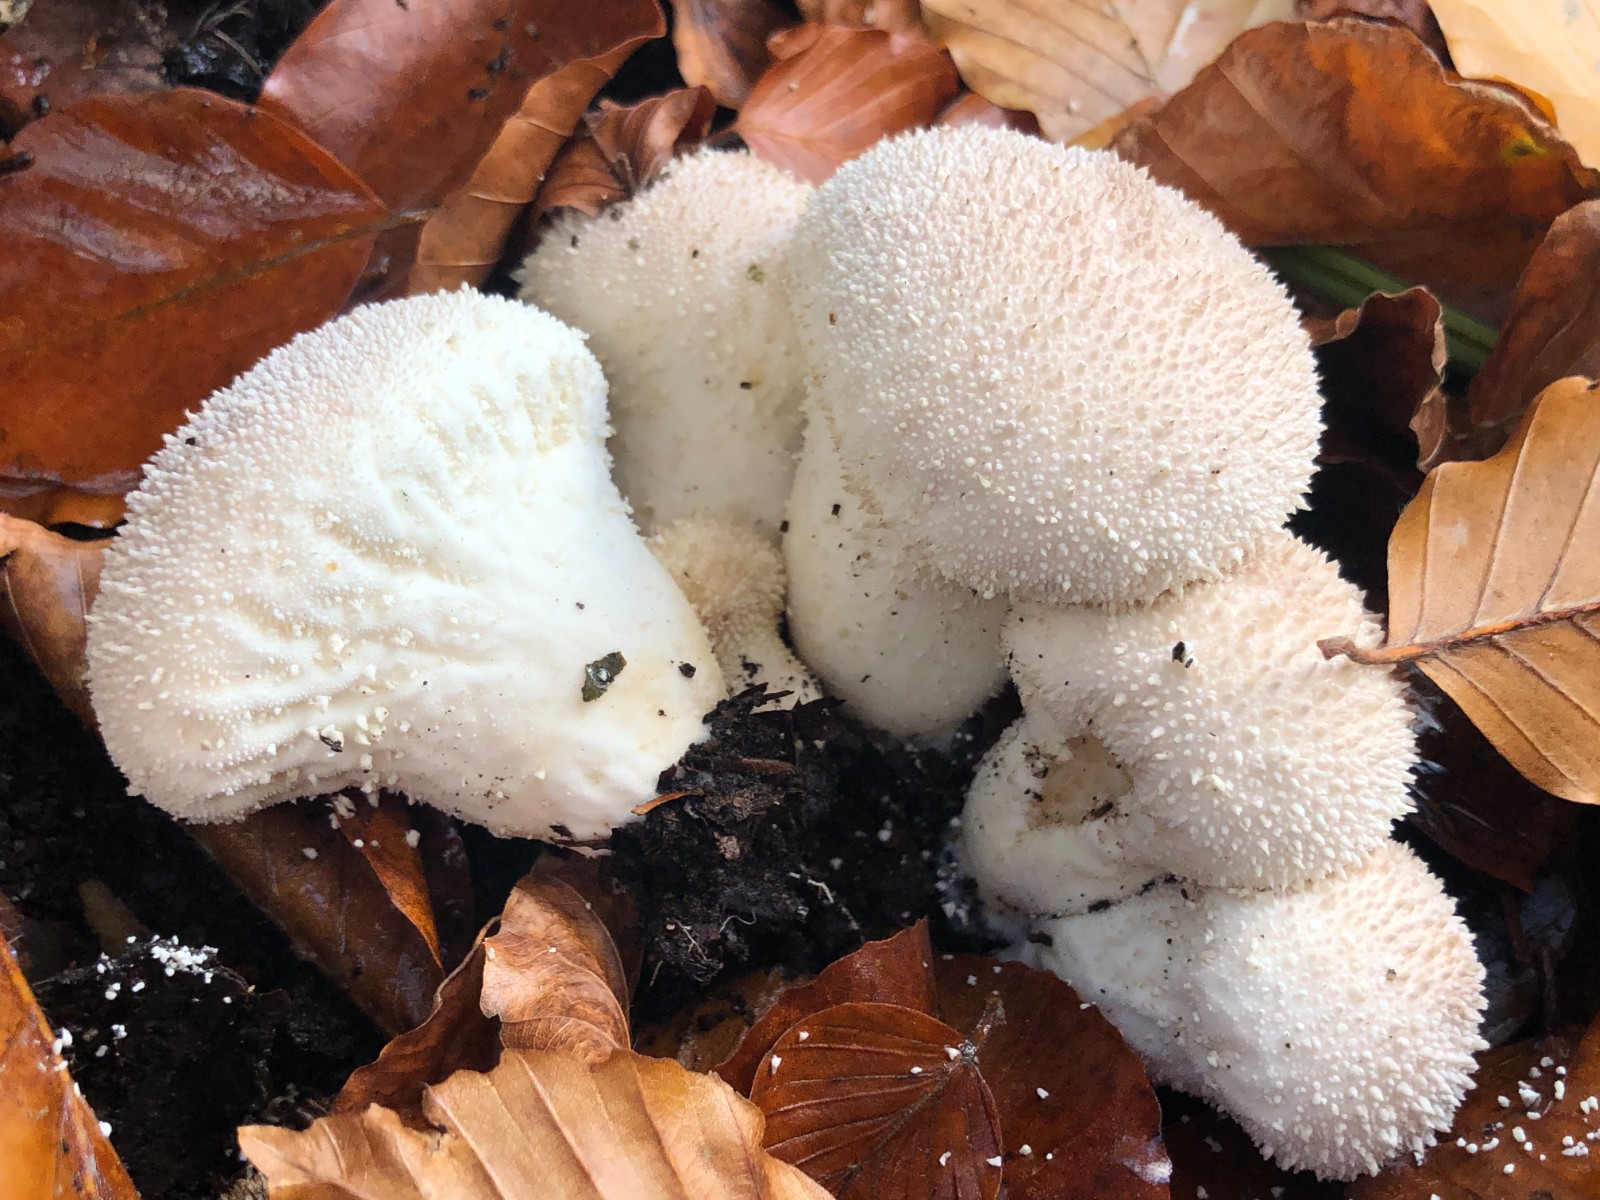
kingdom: Fungi
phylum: Basidiomycota
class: Agaricomycetes
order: Agaricales
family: Lycoperdaceae
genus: Lycoperdon
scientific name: Lycoperdon perlatum
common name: krystal-støvbold
